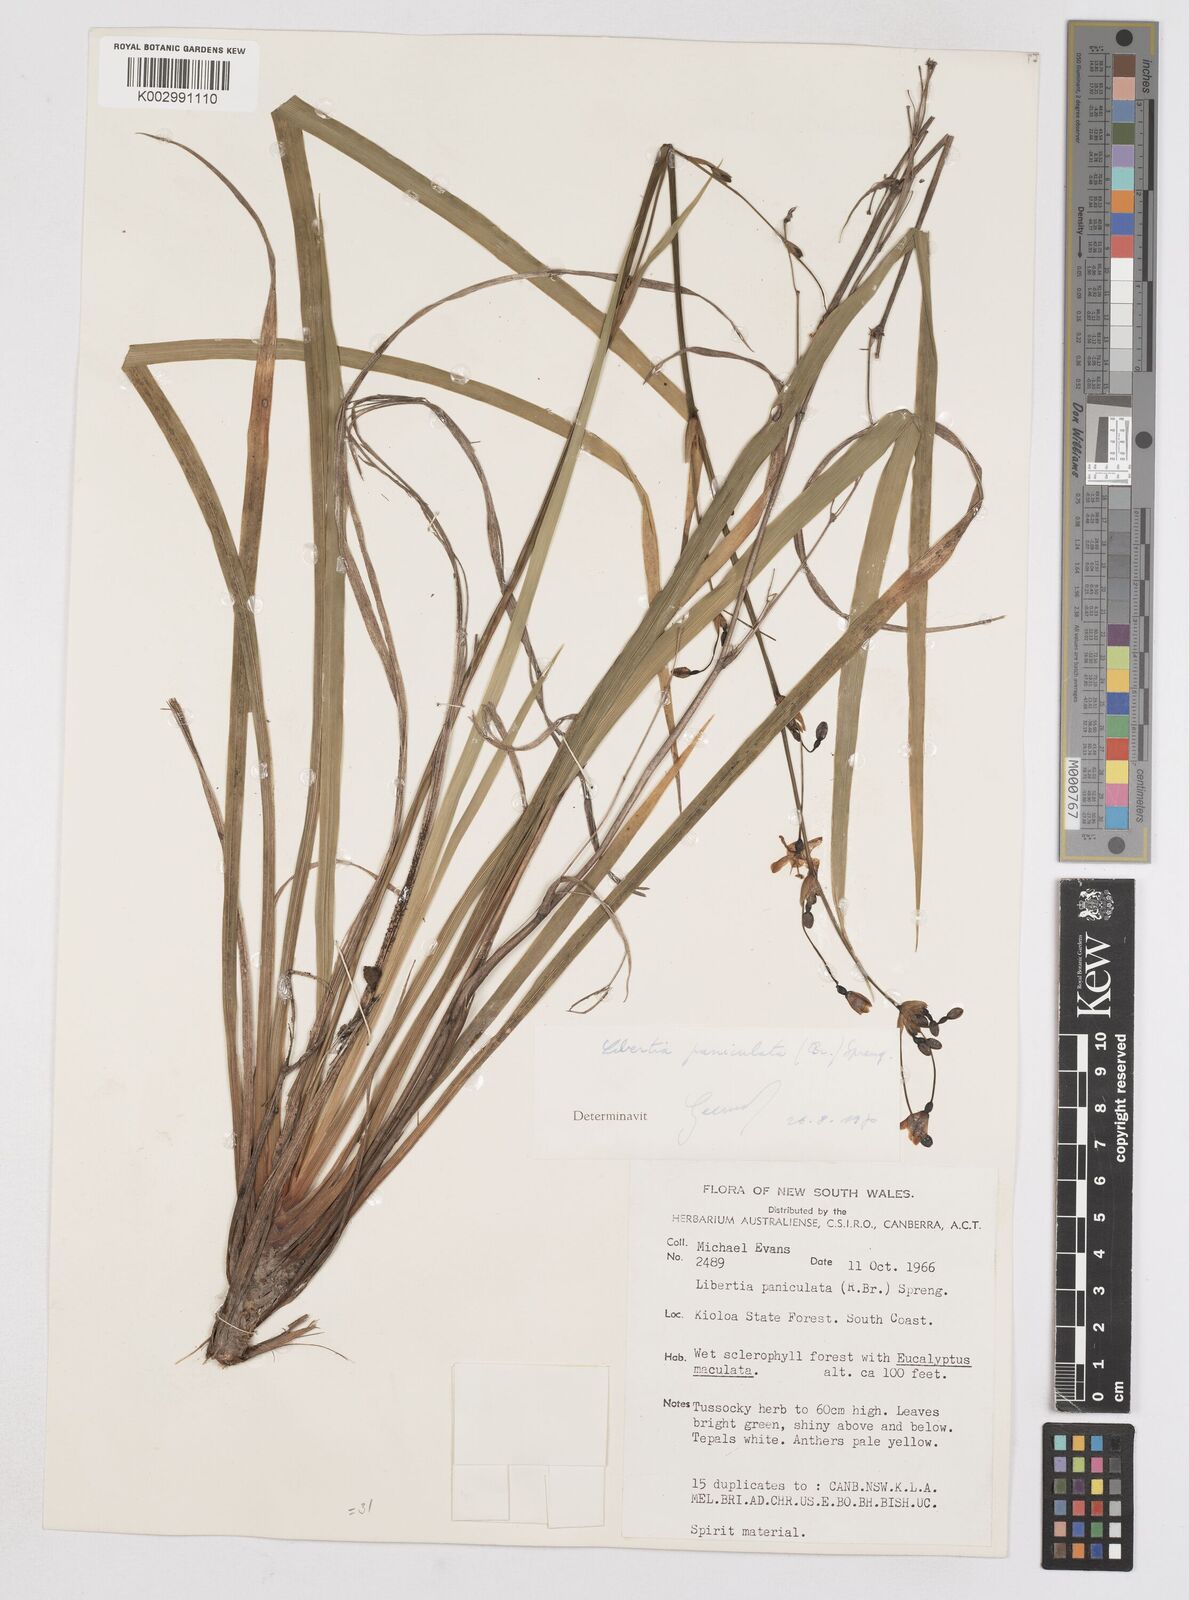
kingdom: Plantae
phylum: Tracheophyta
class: Liliopsida
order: Asparagales
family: Iridaceae
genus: Libertia
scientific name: Libertia paniculata
